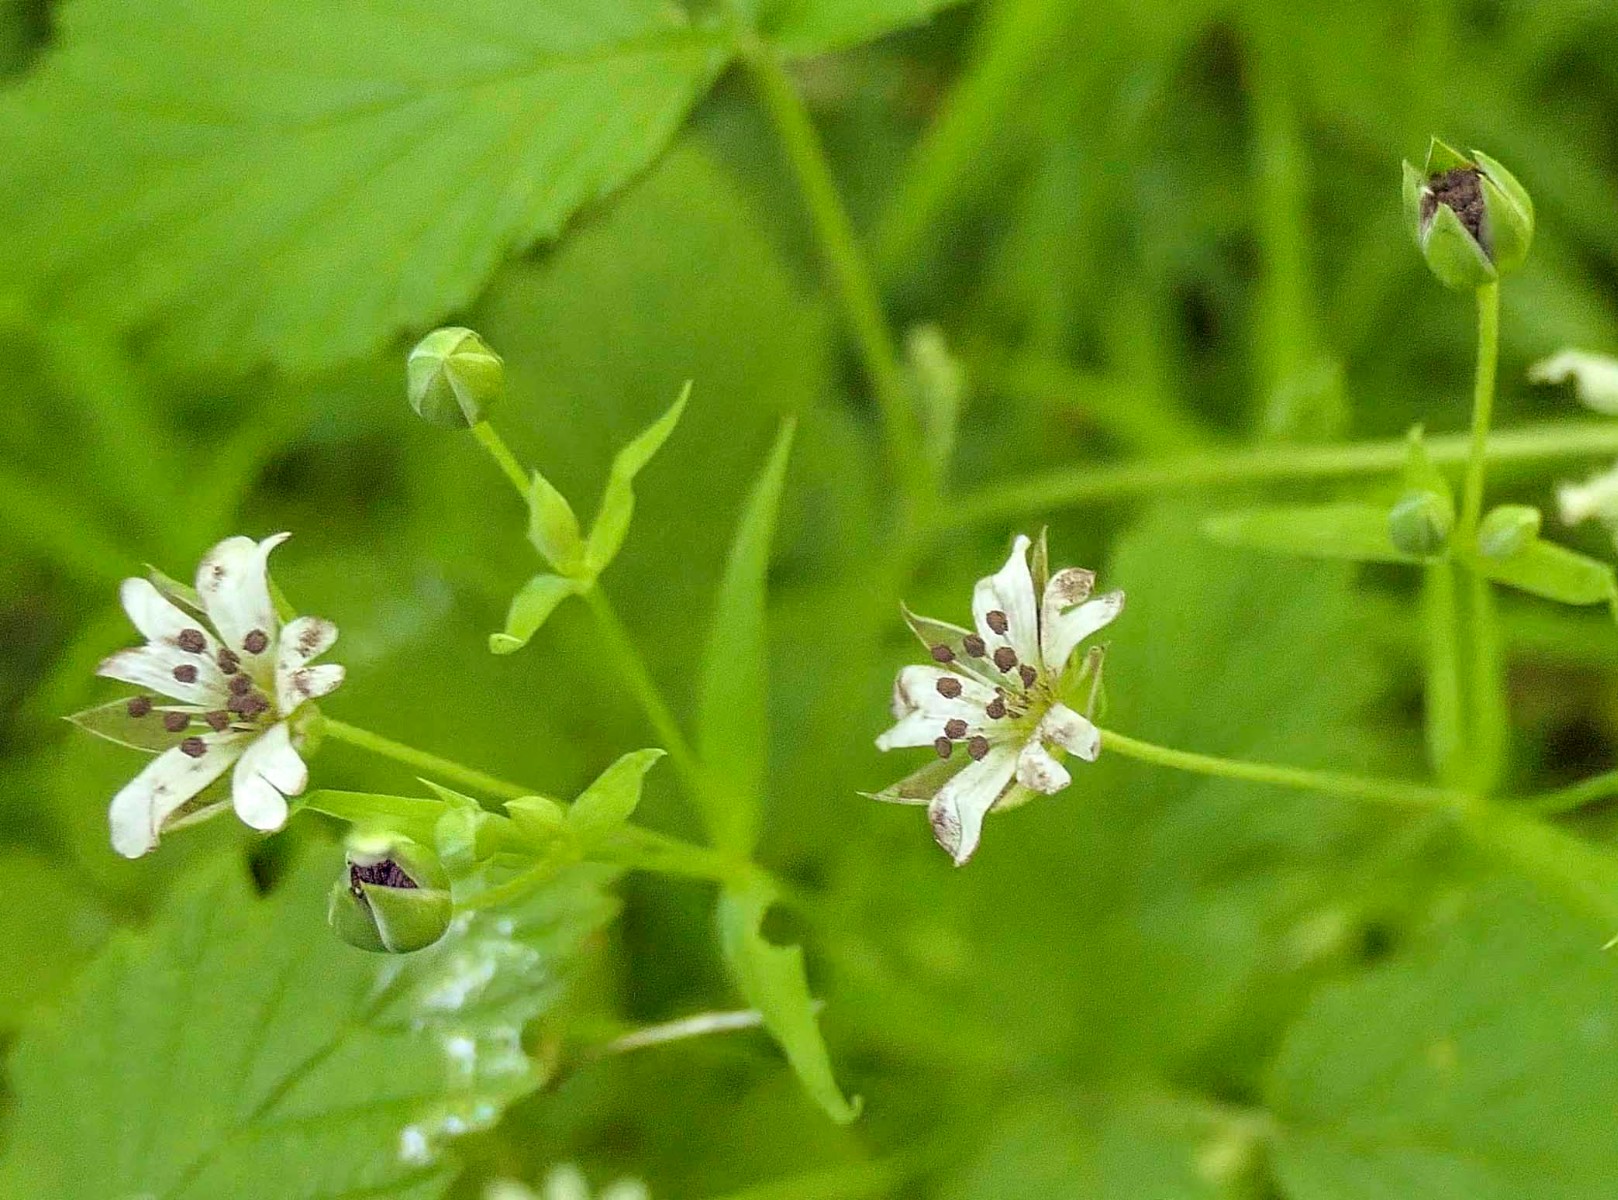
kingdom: Fungi
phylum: Basidiomycota
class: Microbotryomycetes
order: Microbotryales
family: Microbotryaceae
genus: Microbotryum
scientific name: Microbotryum stellariae
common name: fladstjerne-støvbladrust
